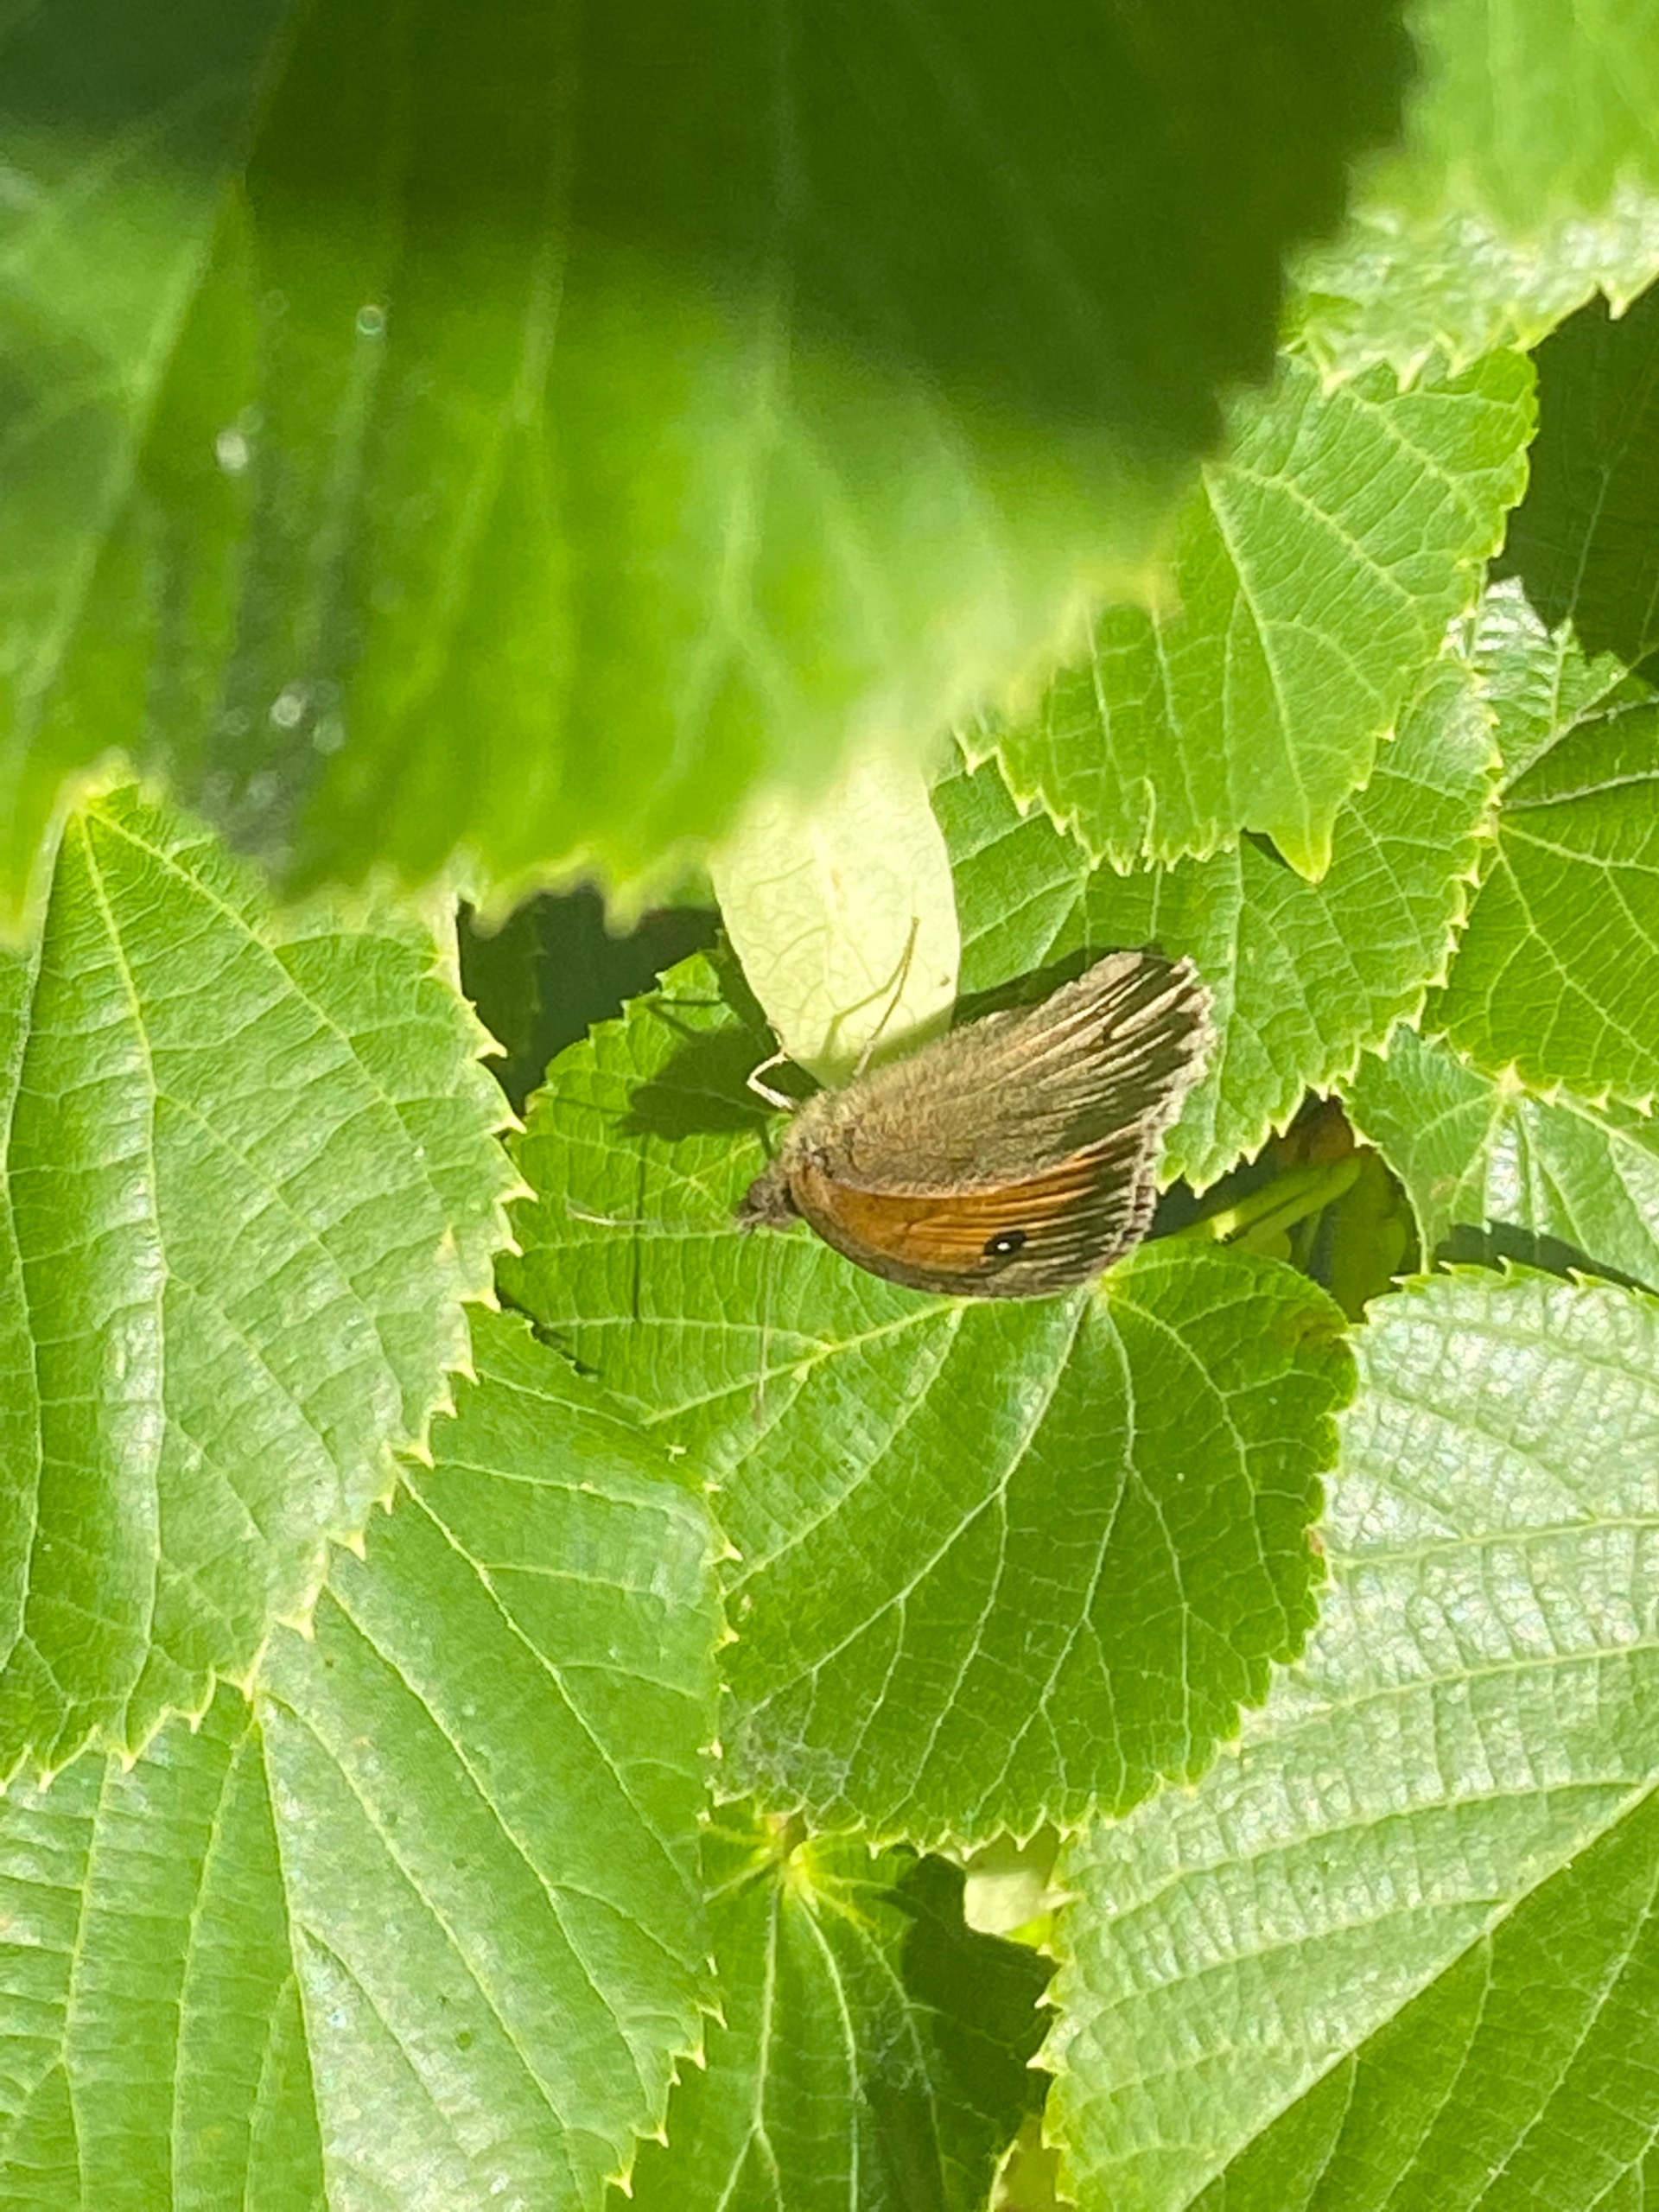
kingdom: Animalia
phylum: Arthropoda
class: Insecta
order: Lepidoptera
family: Nymphalidae
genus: Maniola
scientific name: Maniola jurtina
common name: Græsrandøje
